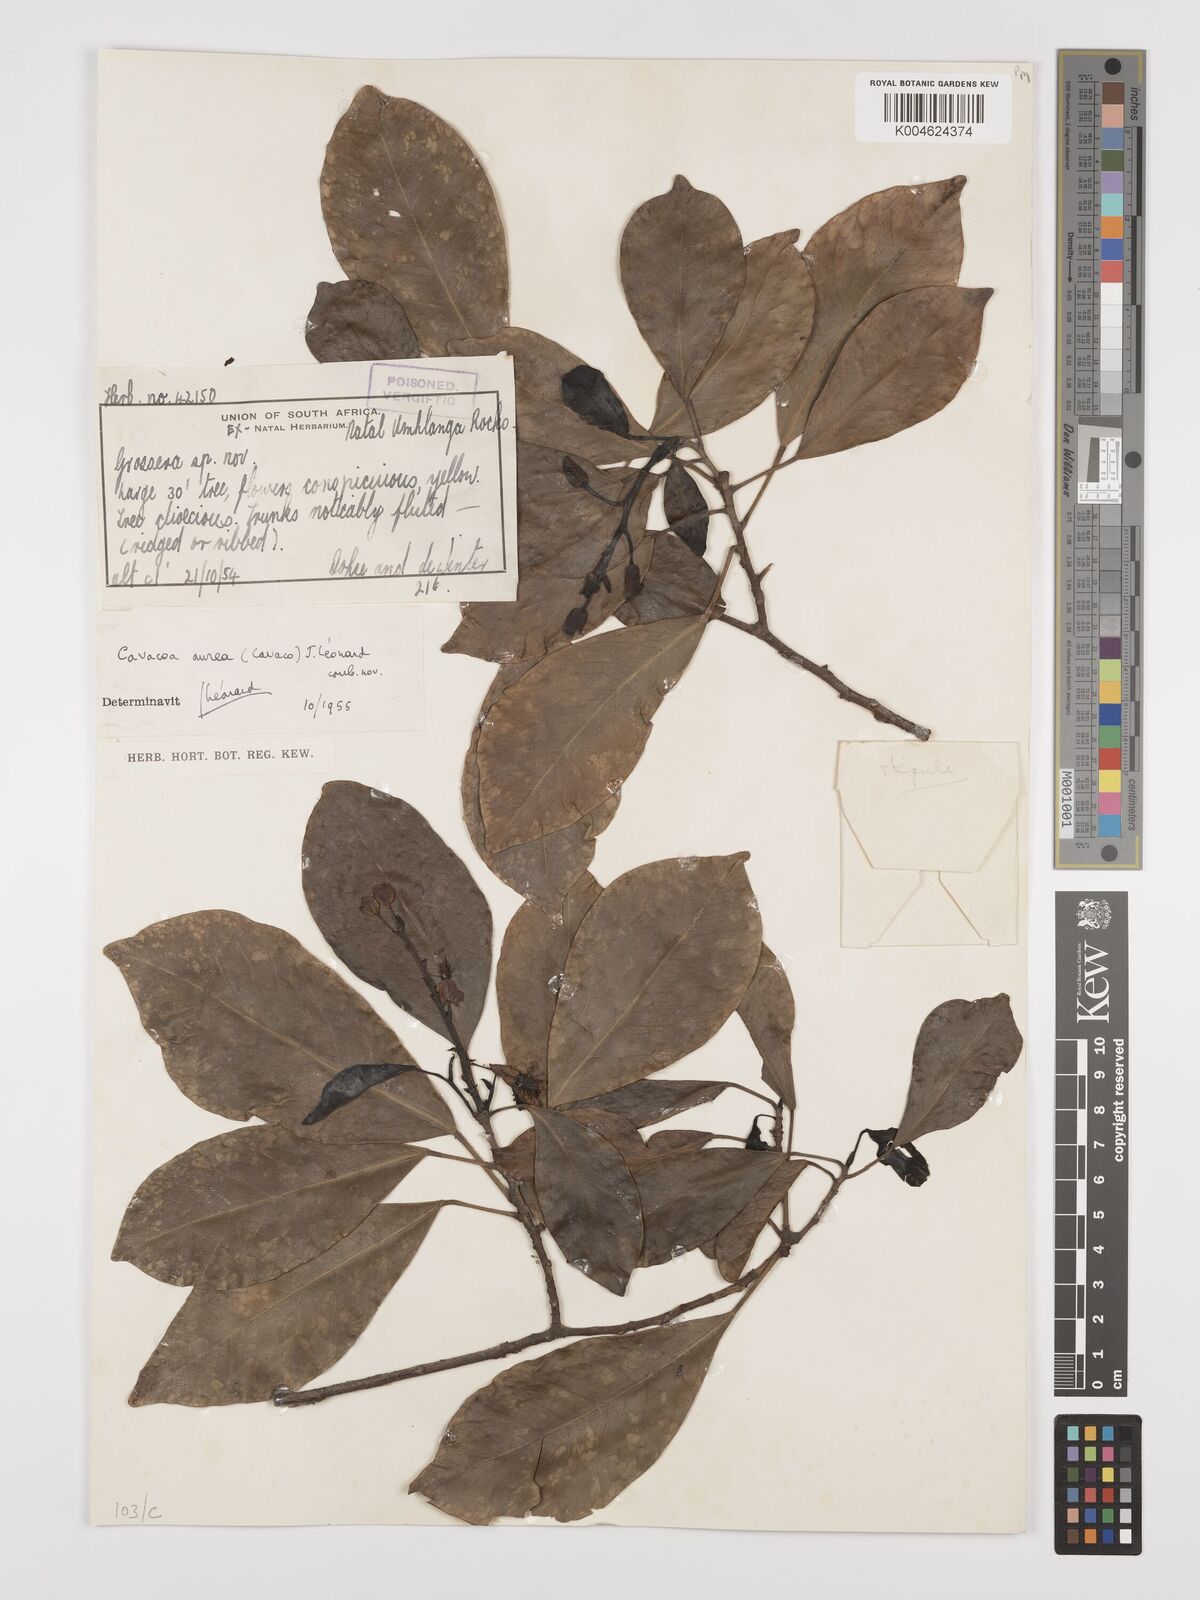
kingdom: Plantae
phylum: Tracheophyta
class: Magnoliopsida
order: Malpighiales
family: Euphorbiaceae
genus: Cavacoa
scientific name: Cavacoa aurea
